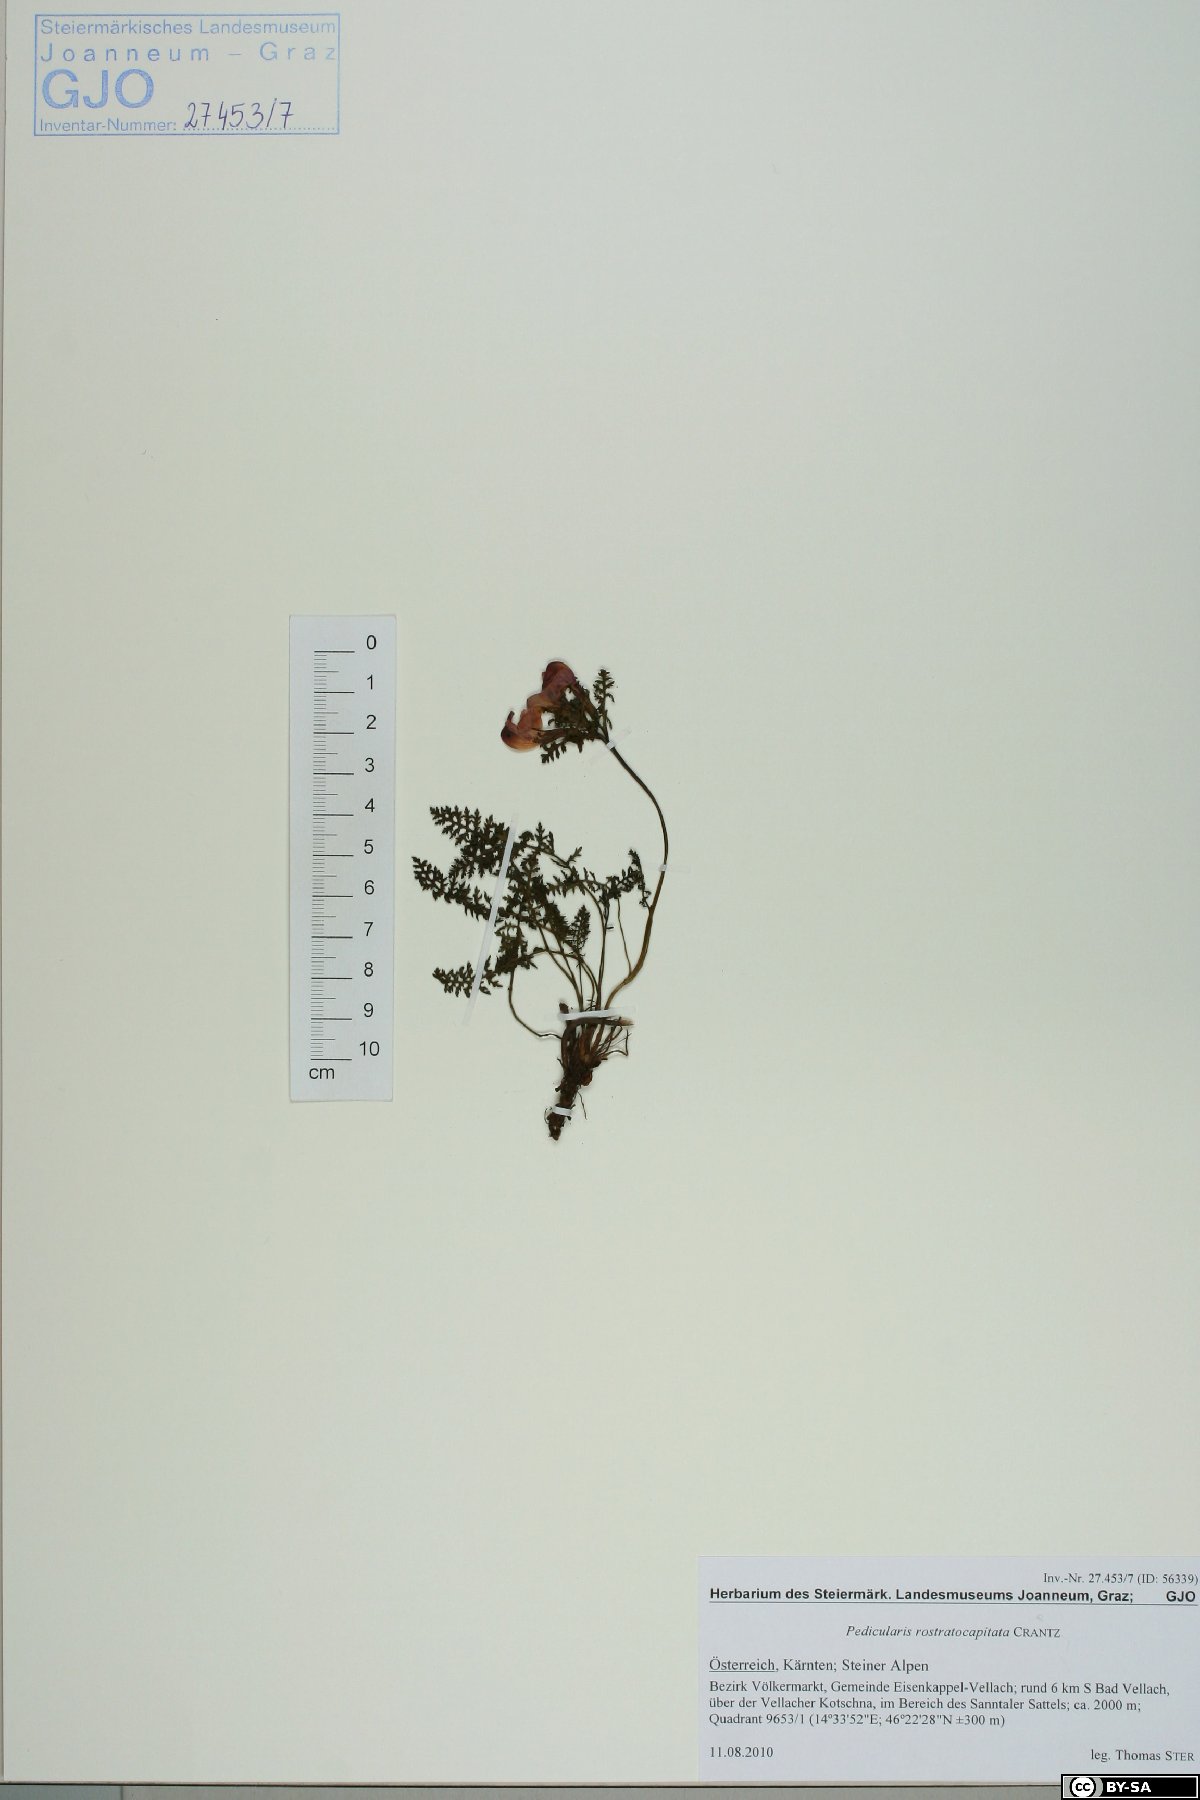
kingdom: Plantae
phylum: Tracheophyta
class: Magnoliopsida
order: Lamiales
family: Orobanchaceae
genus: Pedicularis
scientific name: Pedicularis rostratocapitata
